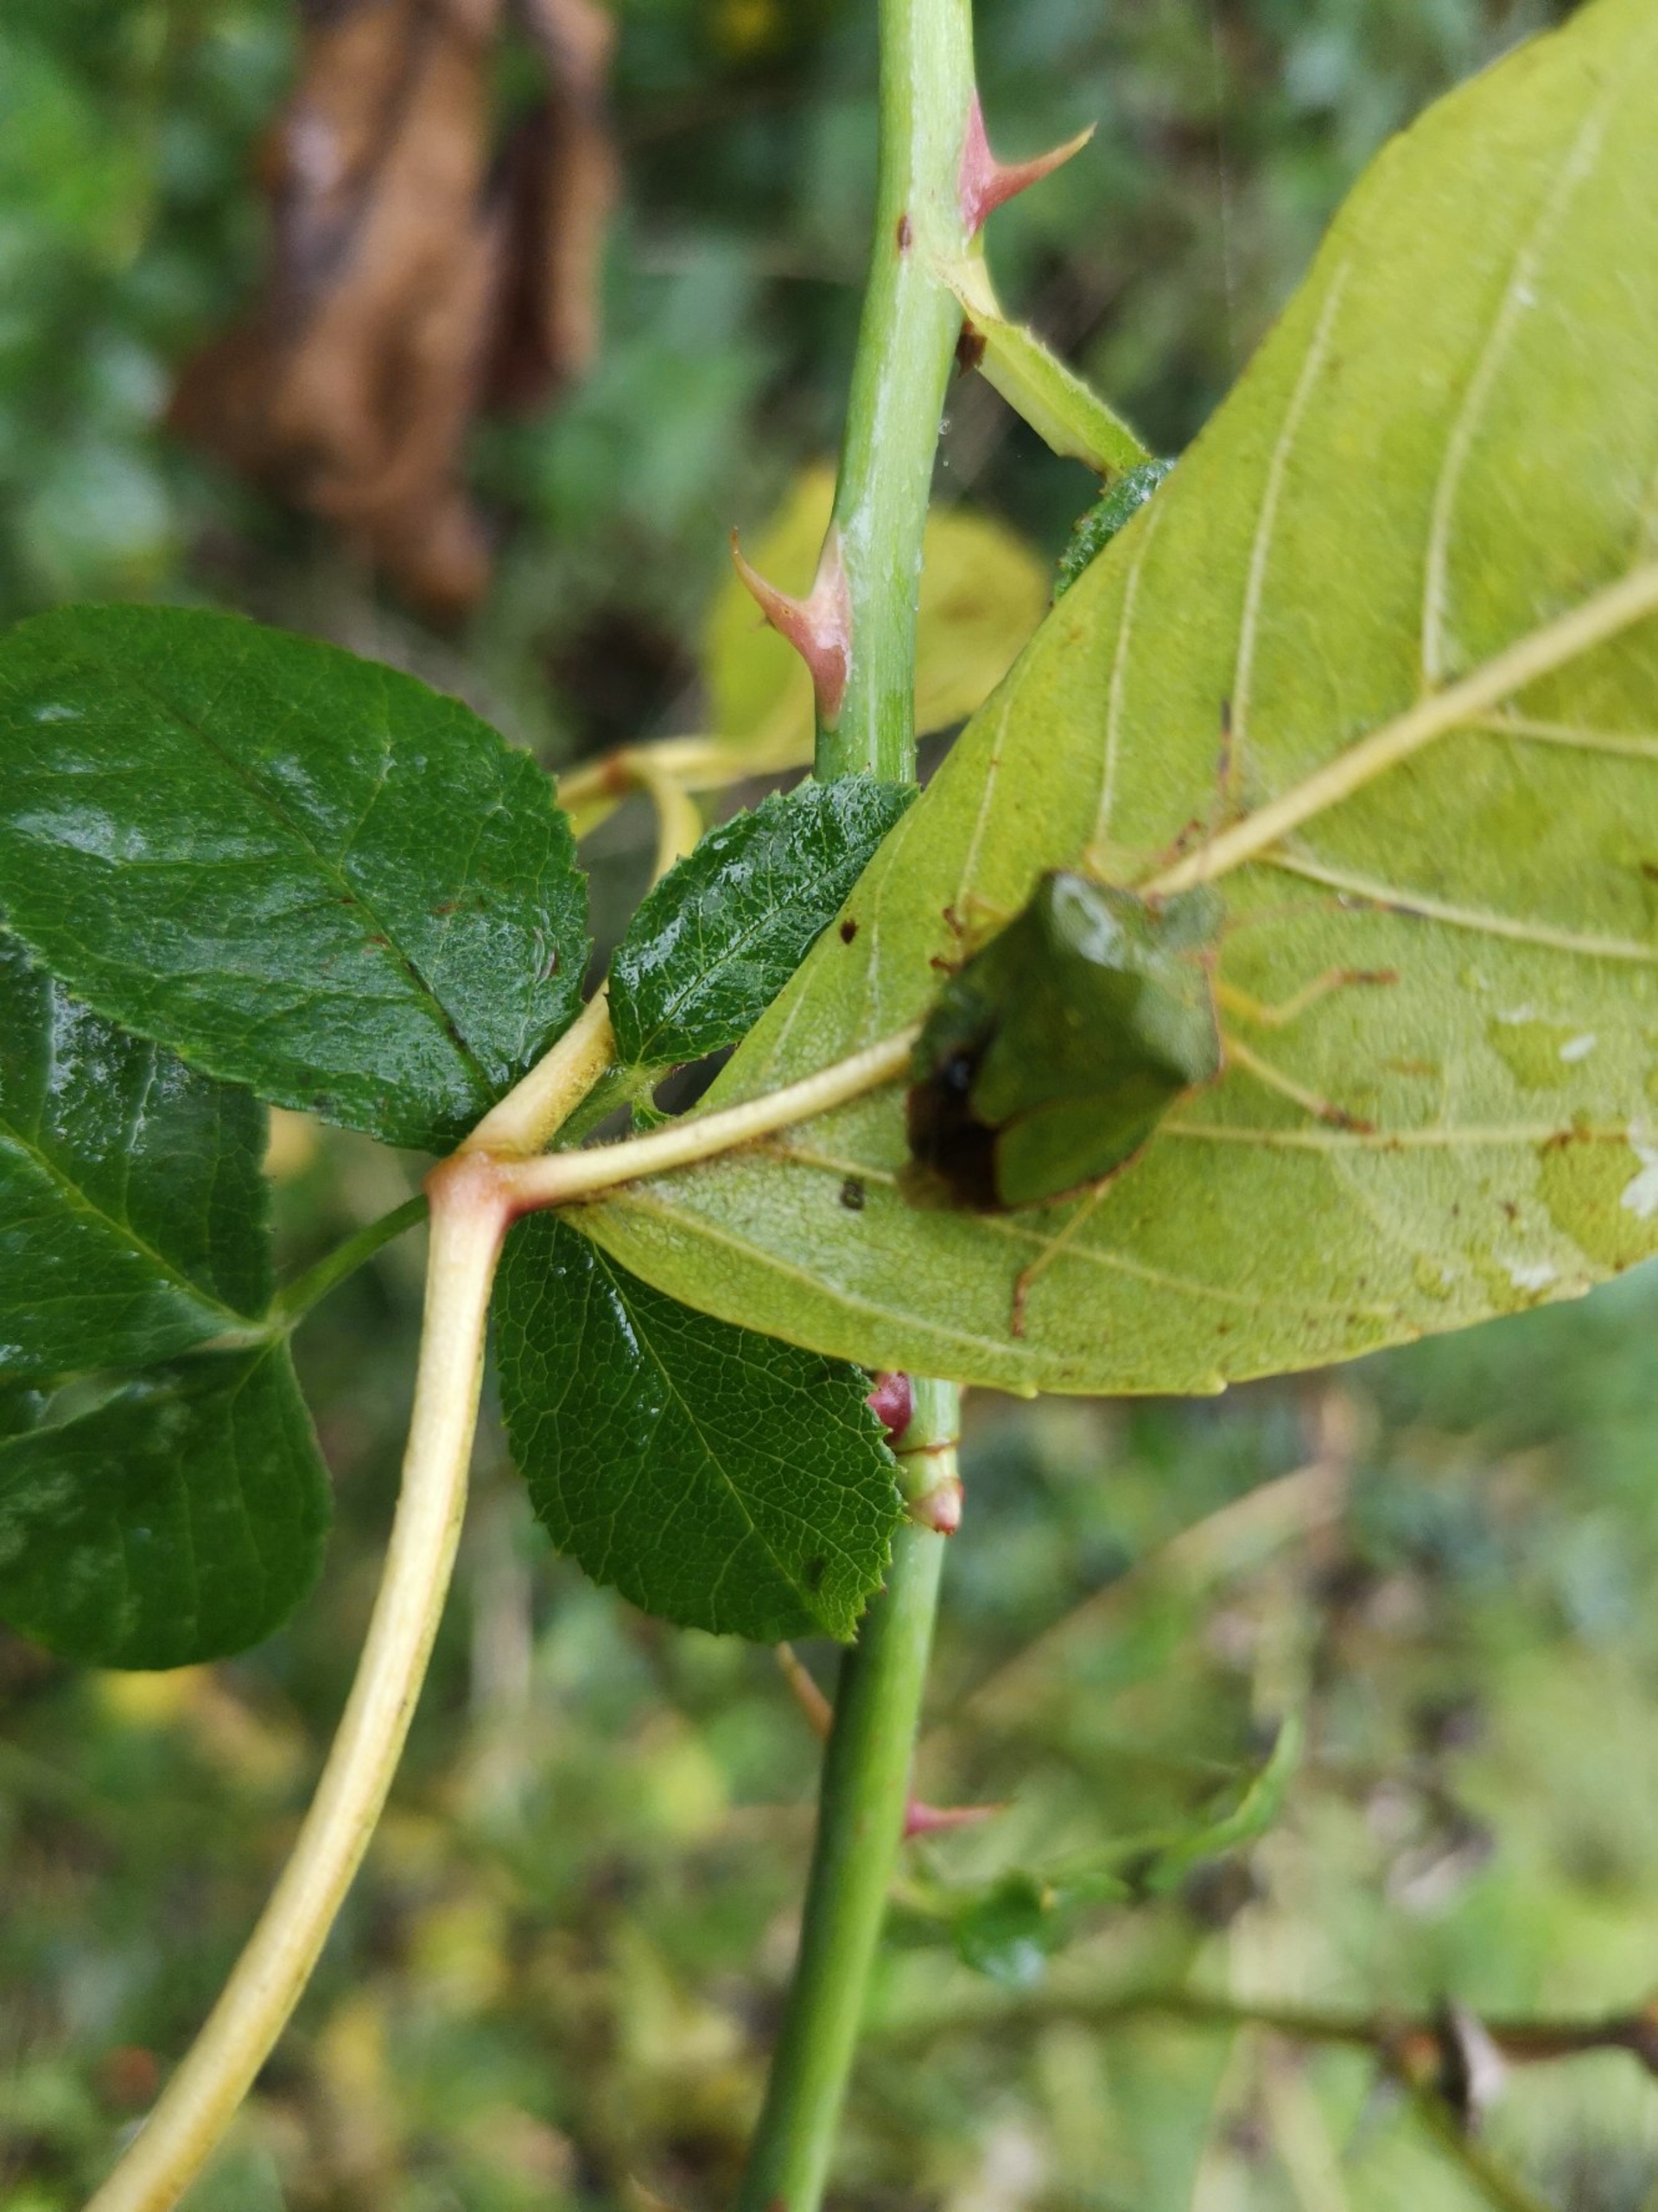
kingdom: Animalia
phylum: Arthropoda
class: Insecta
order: Hemiptera
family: Pentatomidae
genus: Palomena
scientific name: Palomena prasina
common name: Grøn bredtæge
